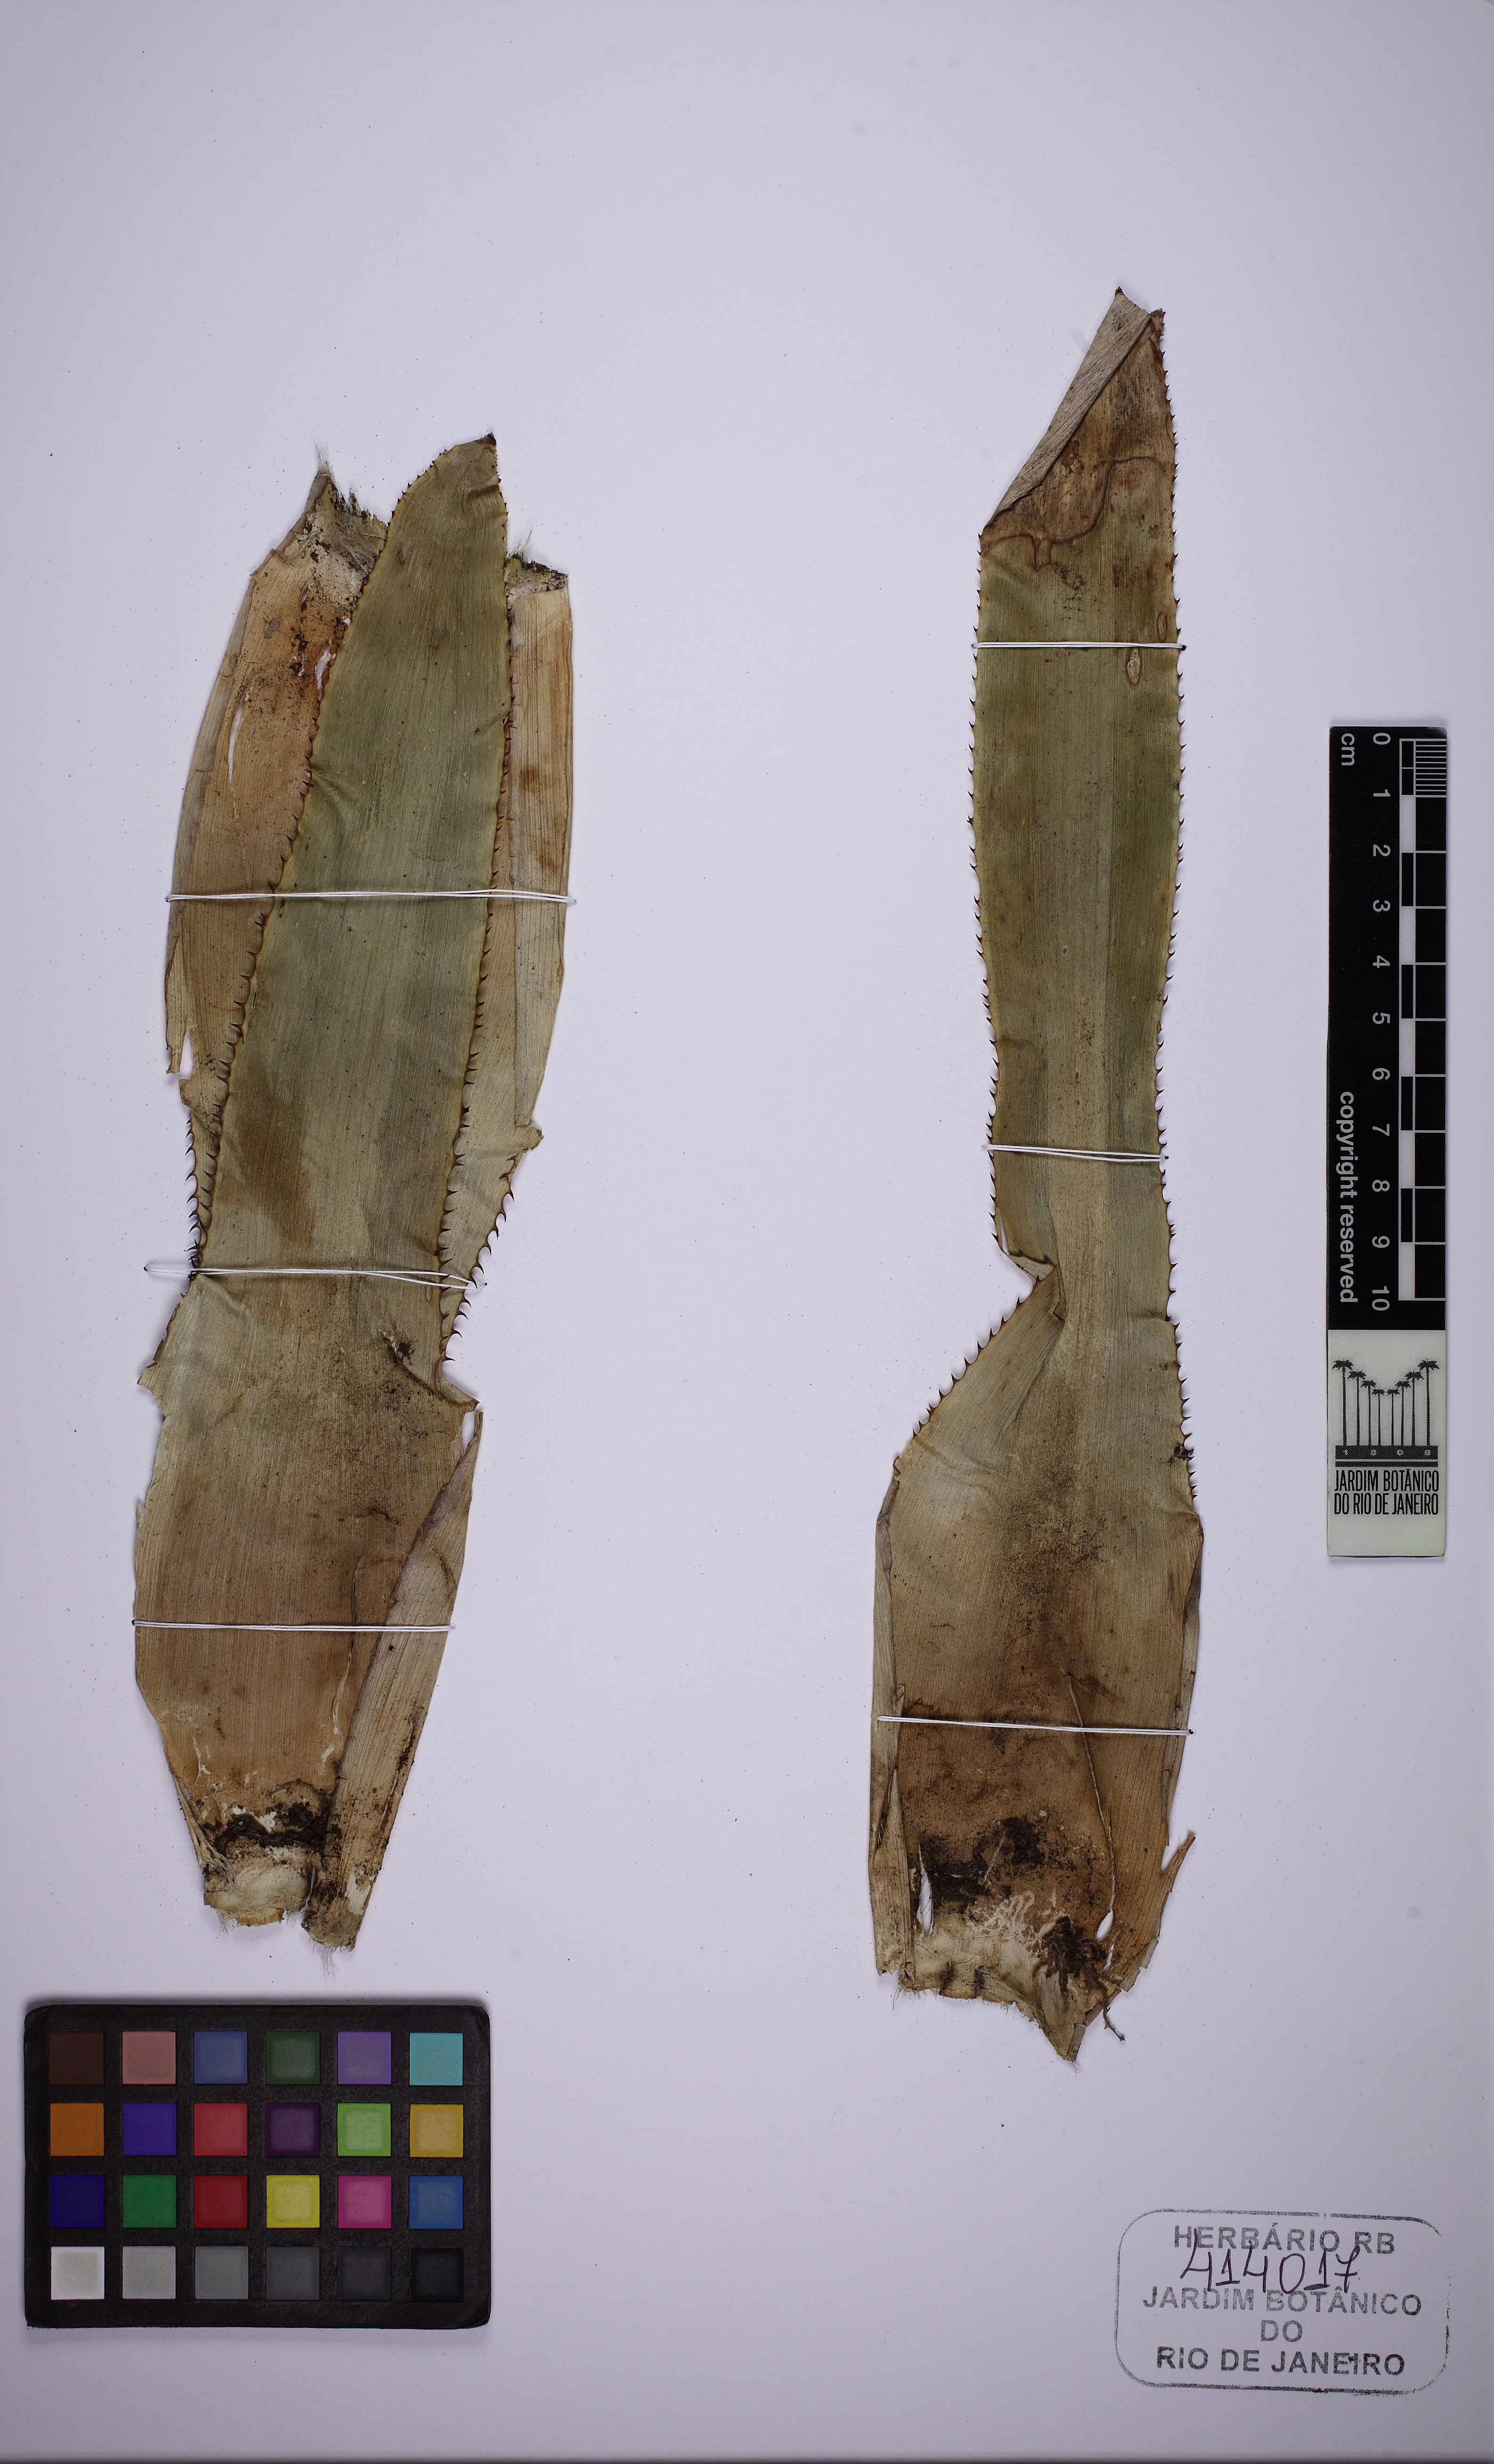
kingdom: Plantae
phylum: Tracheophyta
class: Liliopsida
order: Poales
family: Bromeliaceae
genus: Aechmea
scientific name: Aechmea maasii
